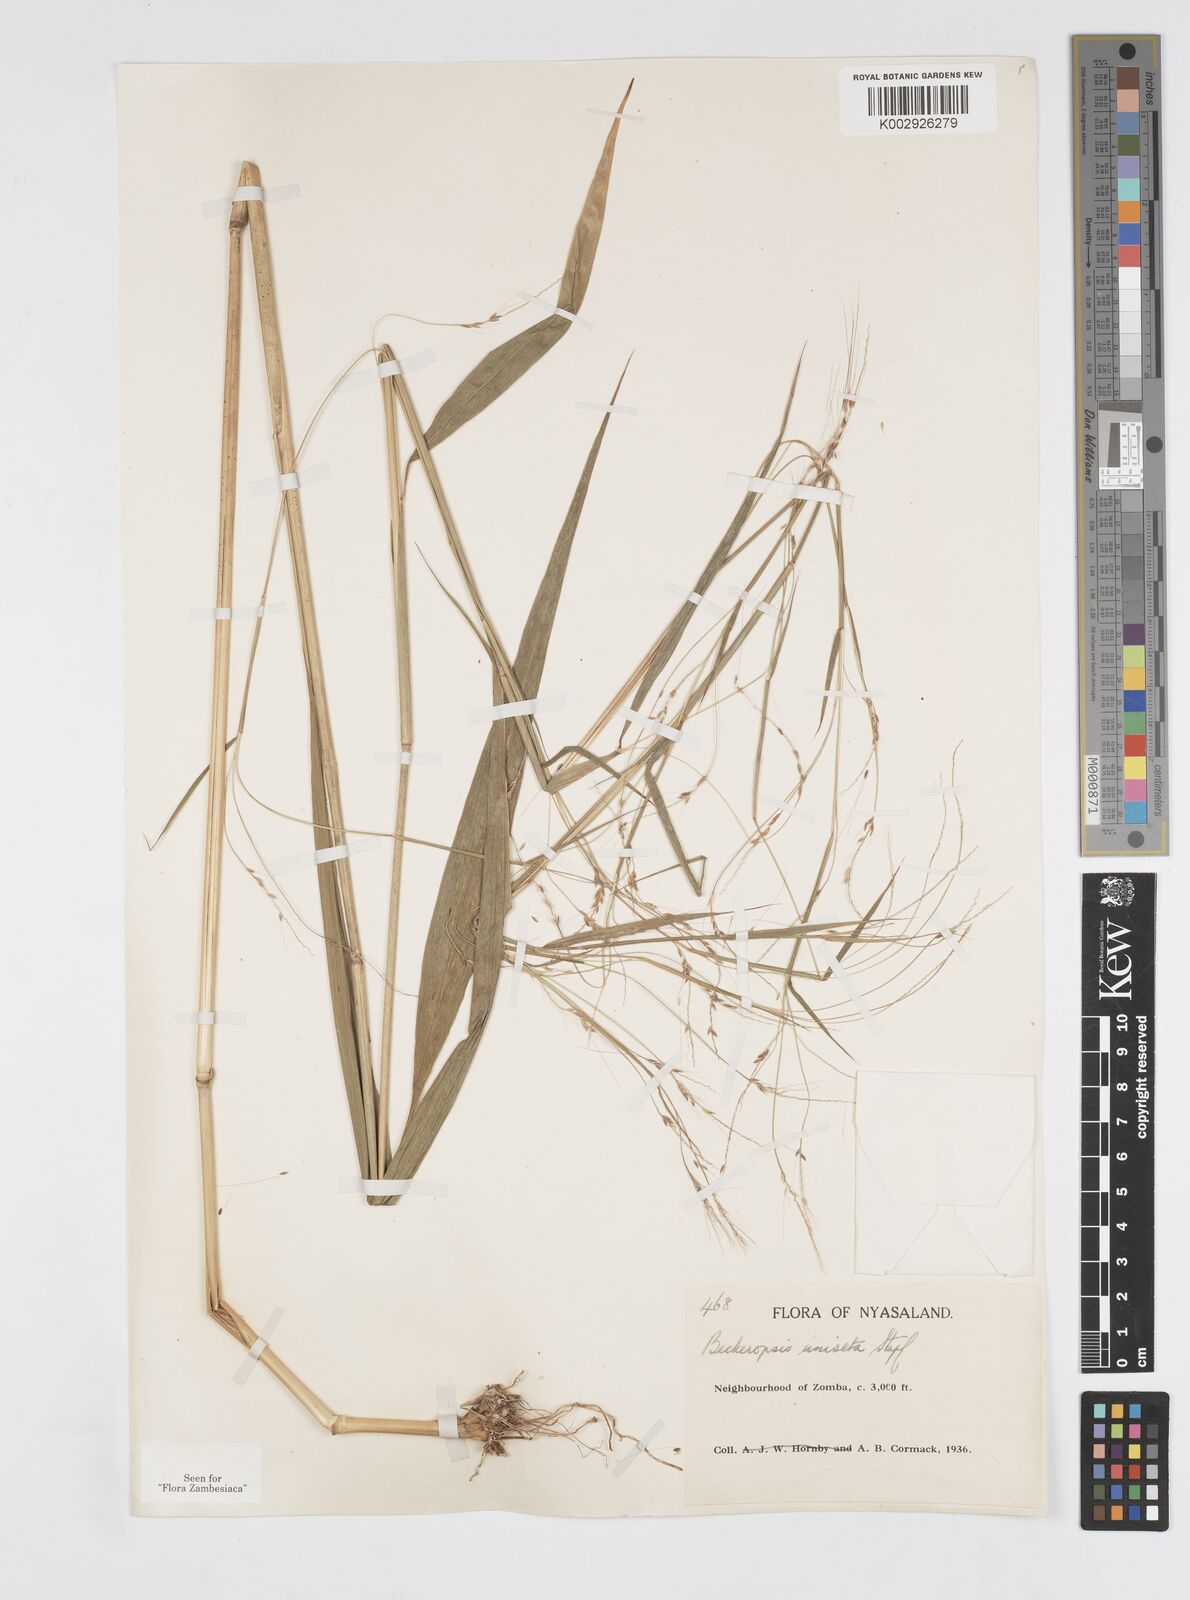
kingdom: Plantae
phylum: Tracheophyta
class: Liliopsida
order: Poales
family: Poaceae
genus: Cenchrus
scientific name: Cenchrus unisetus
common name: Natal grass
